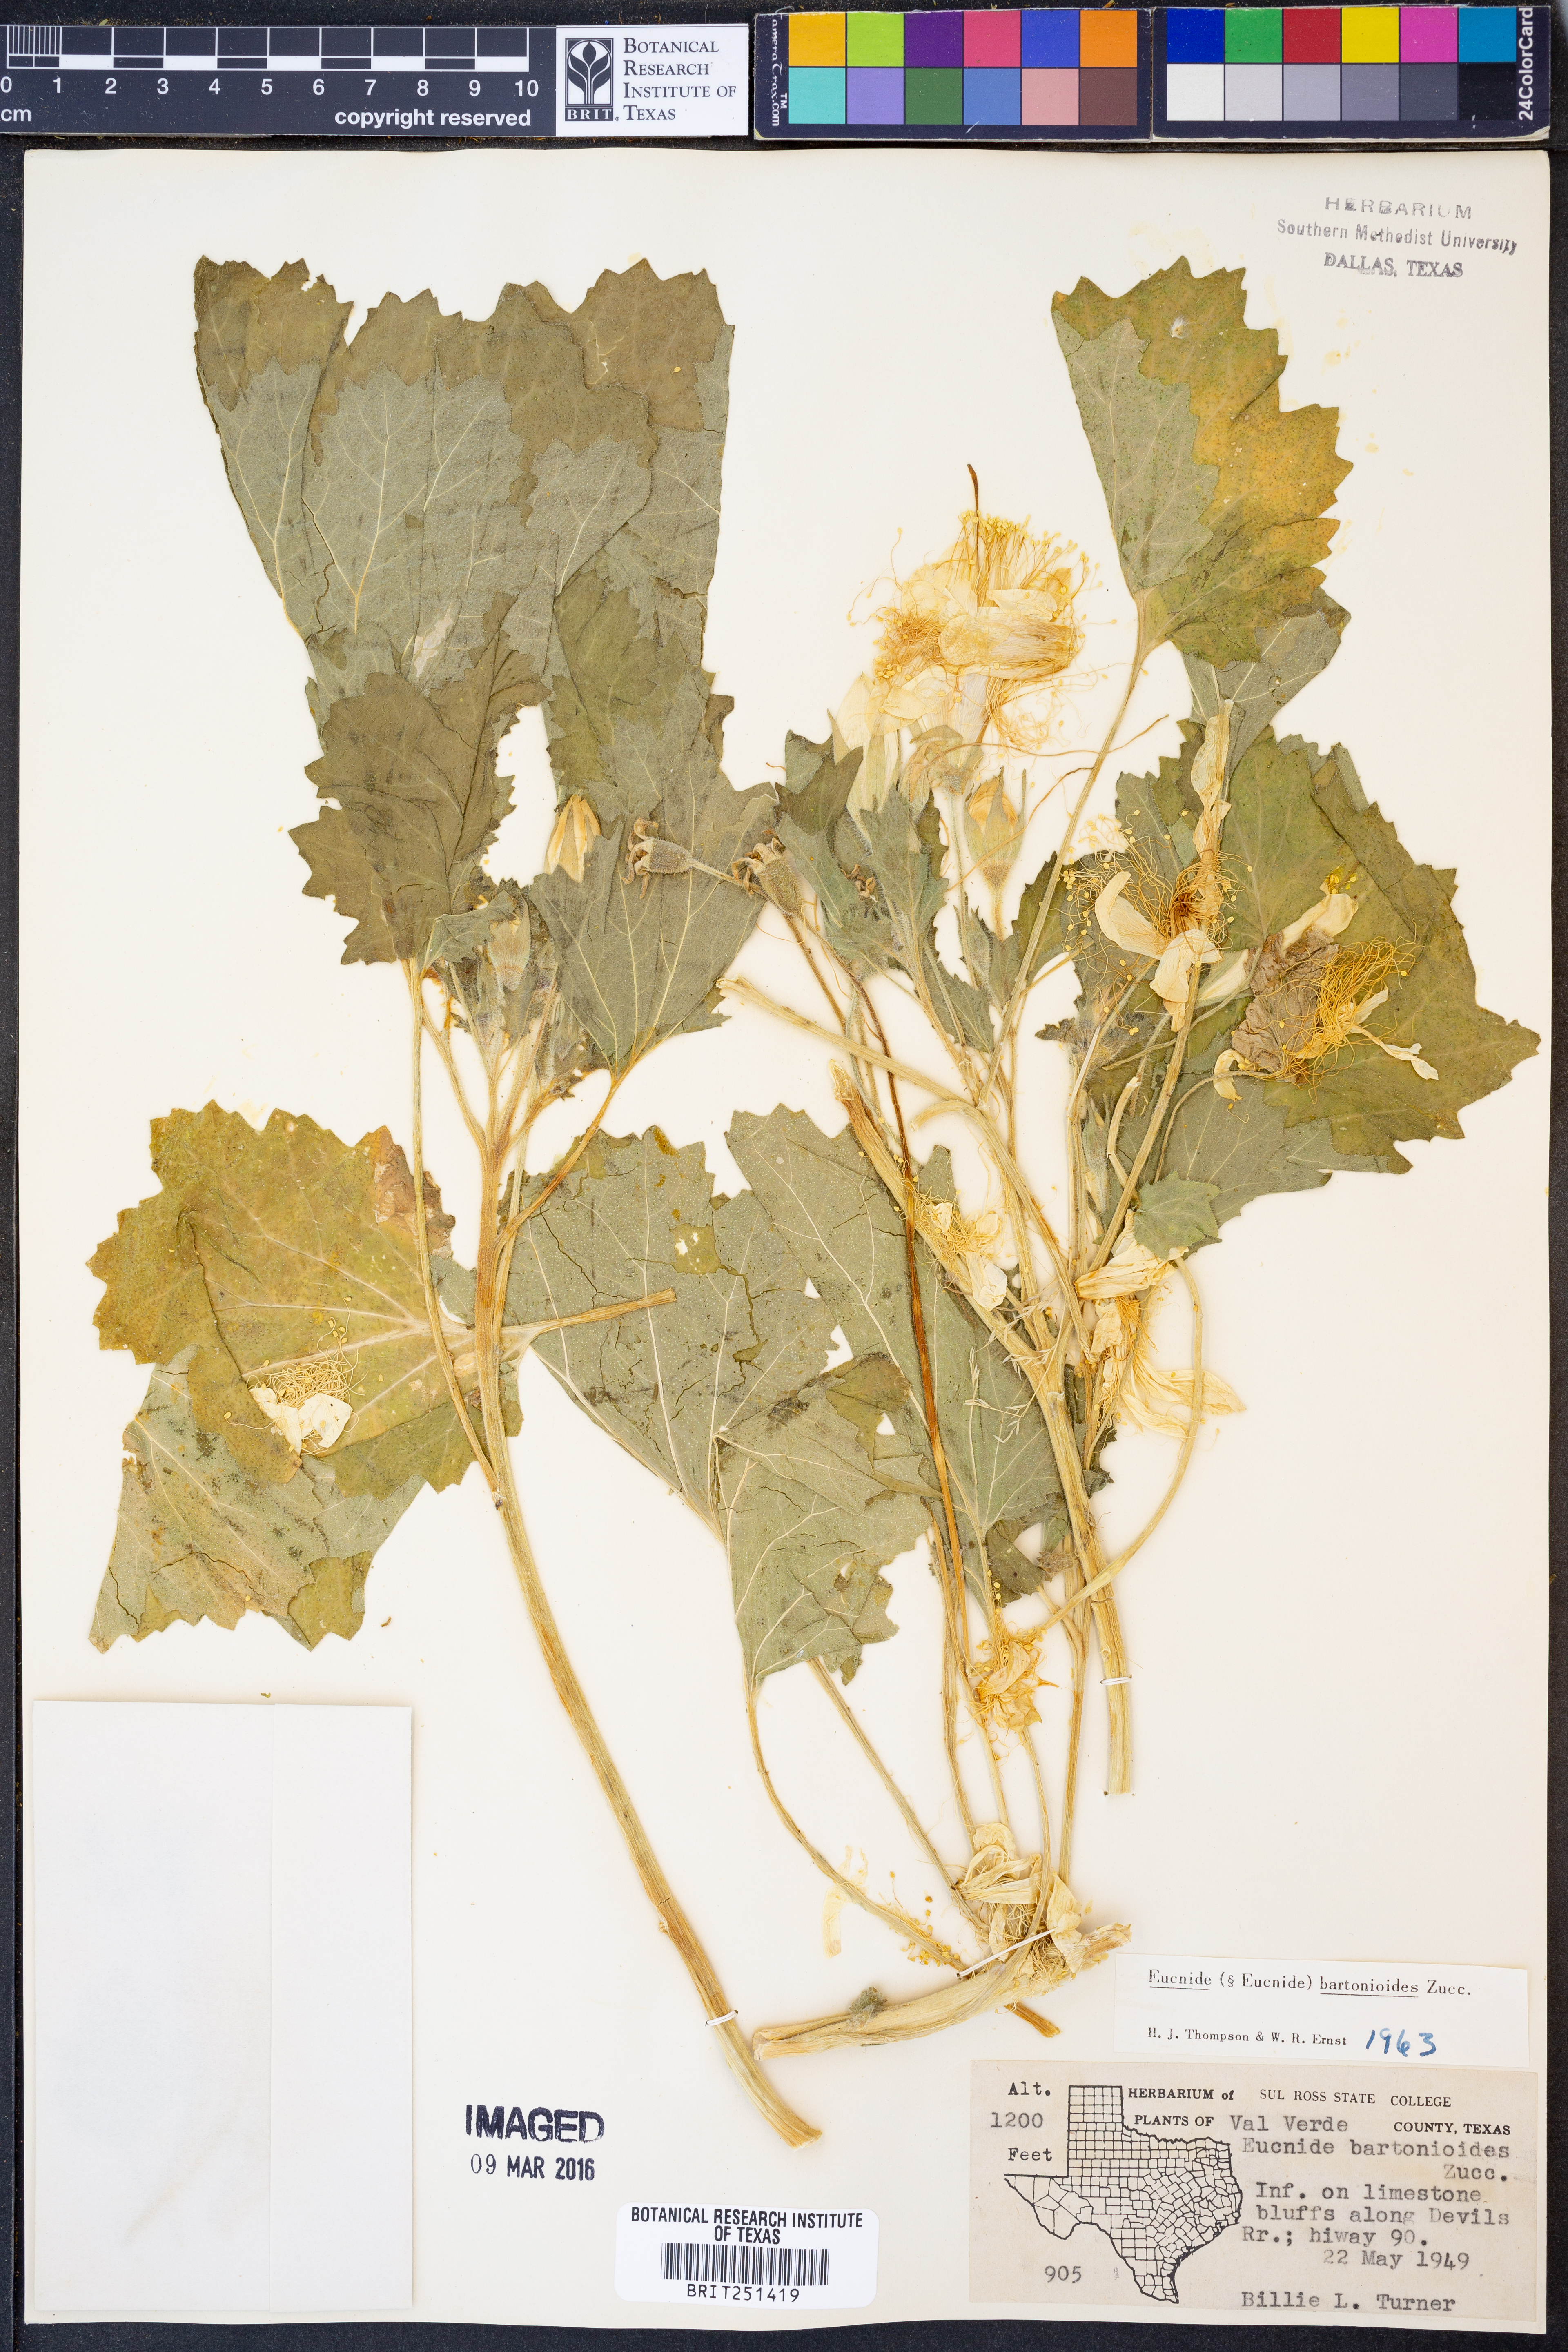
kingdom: Plantae
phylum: Tracheophyta
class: Magnoliopsida
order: Cornales
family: Loasaceae
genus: Eucnide
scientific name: Eucnide bartonioides
